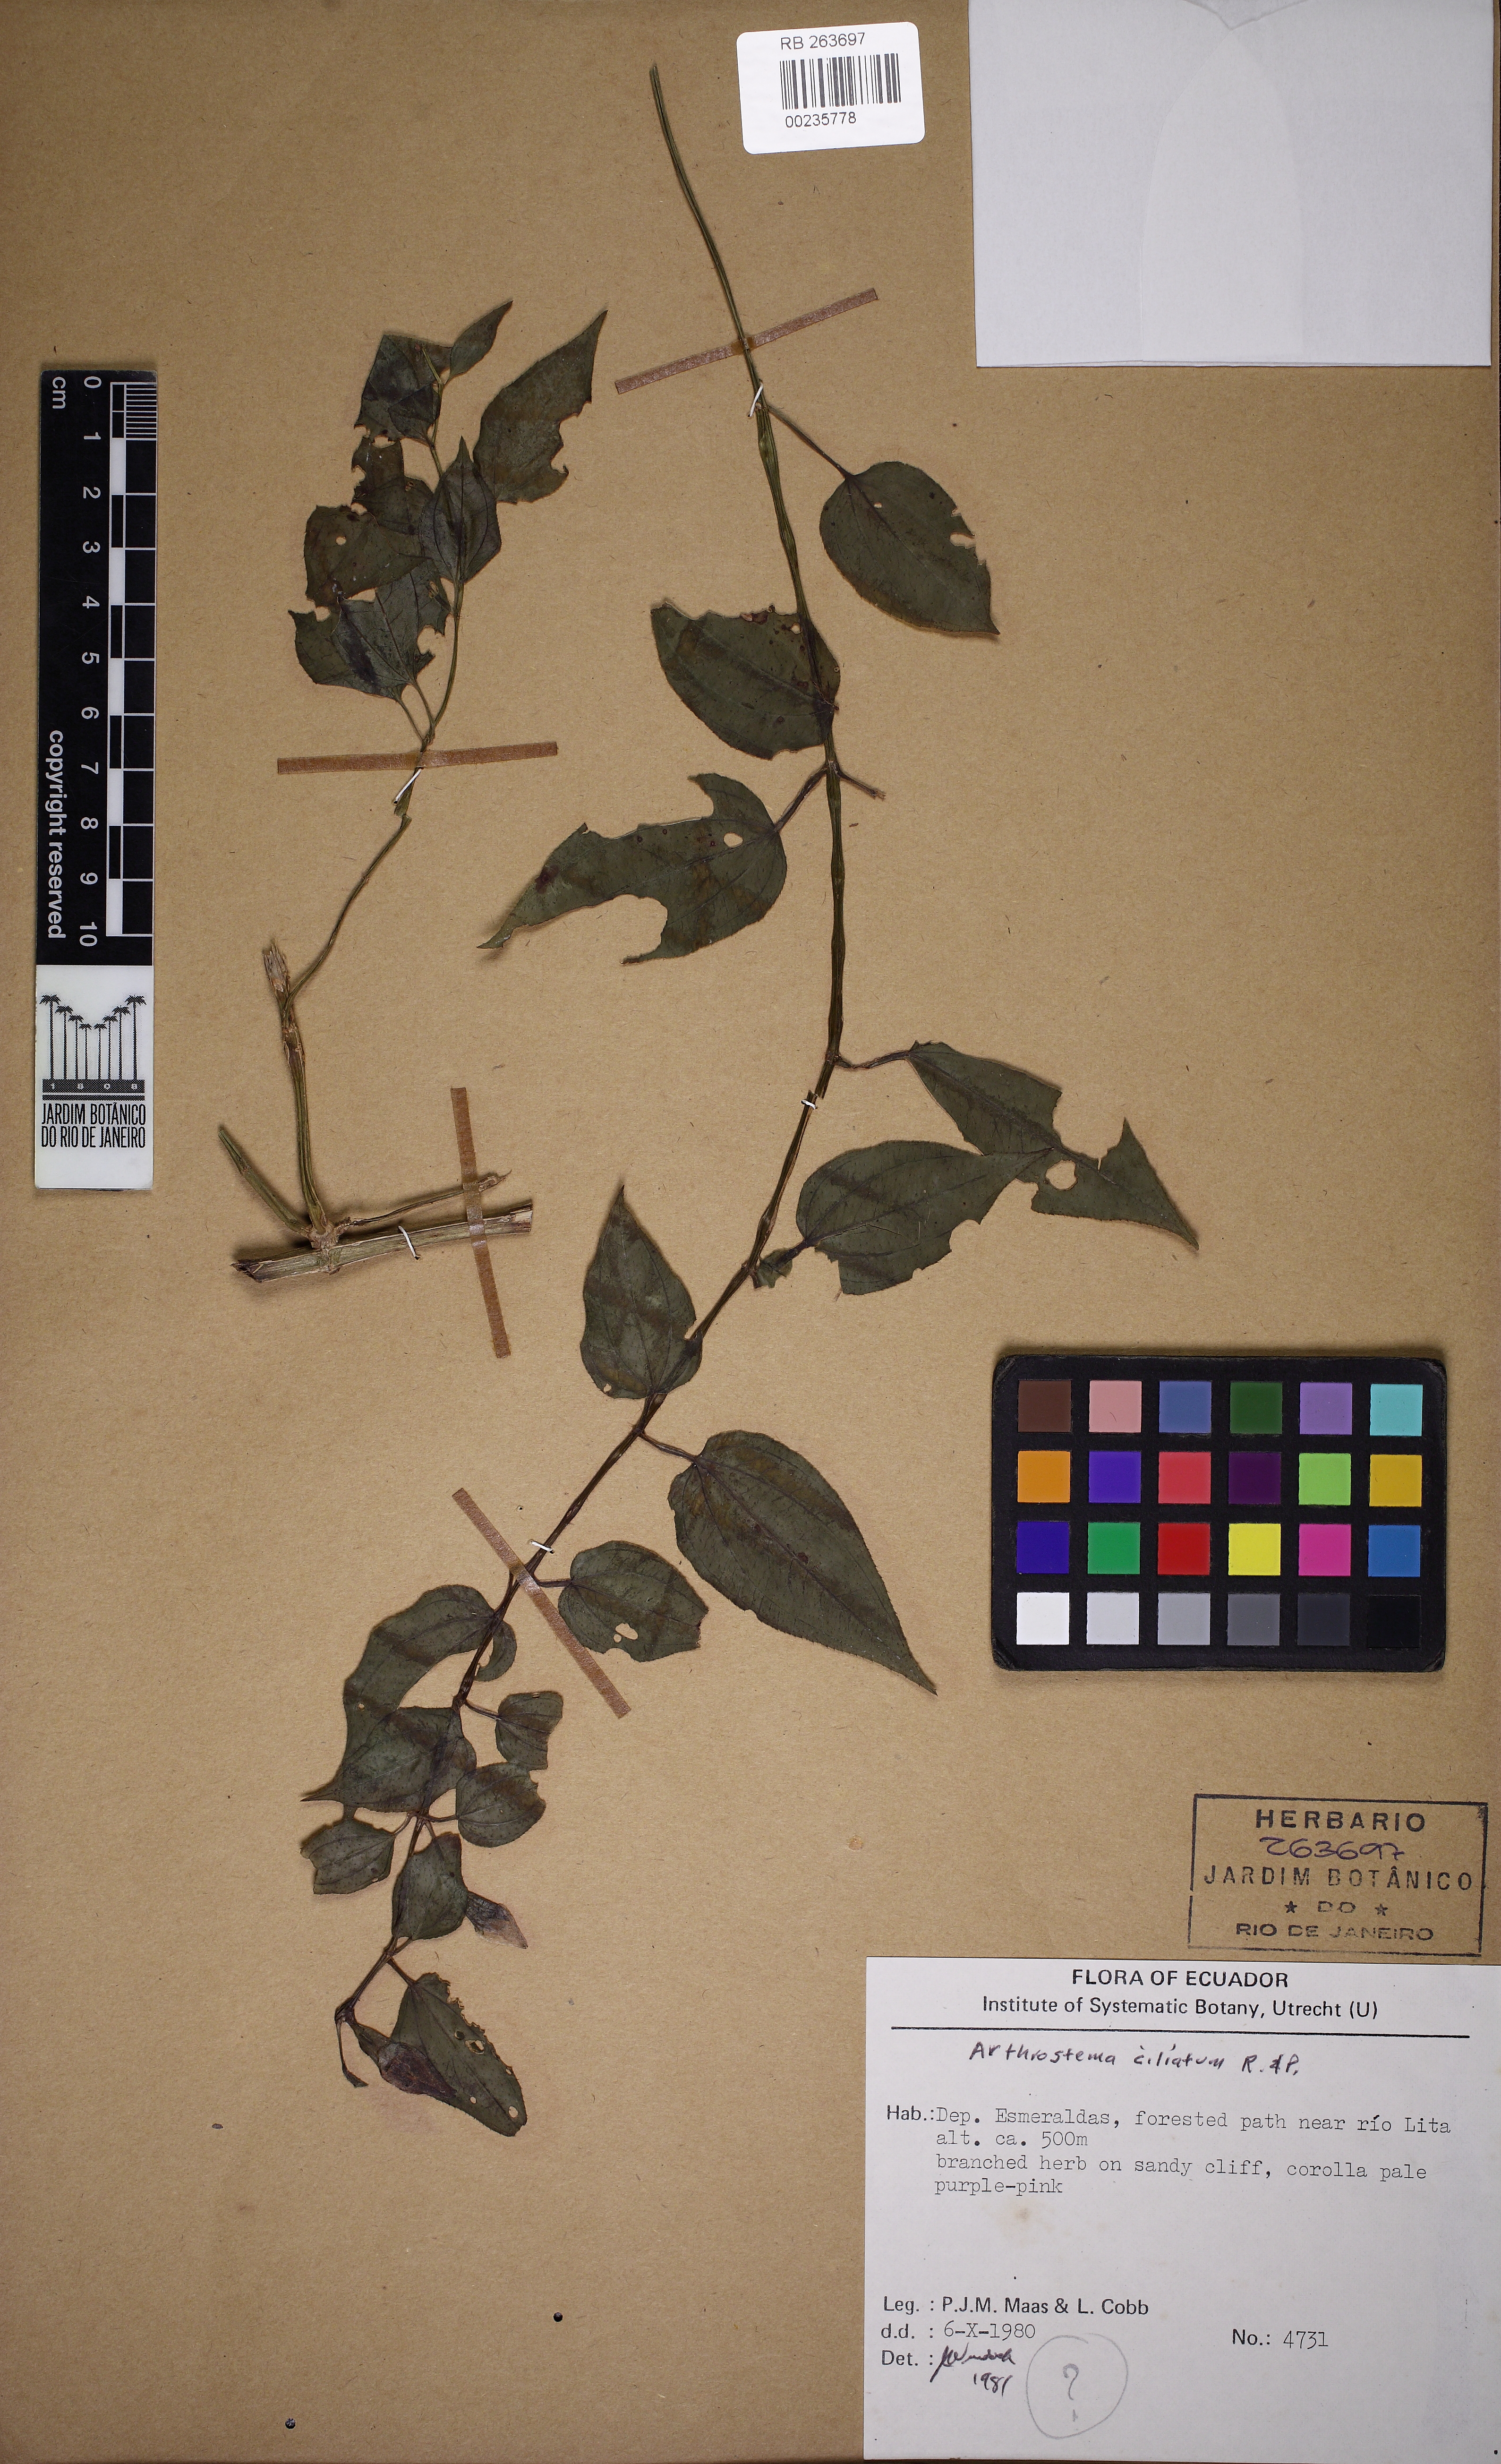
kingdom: Plantae
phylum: Tracheophyta
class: Magnoliopsida
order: Myrtales
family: Melastomataceae
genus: Arthrostemma
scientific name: Arthrostemma ciliatum
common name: Everblooming eavender
